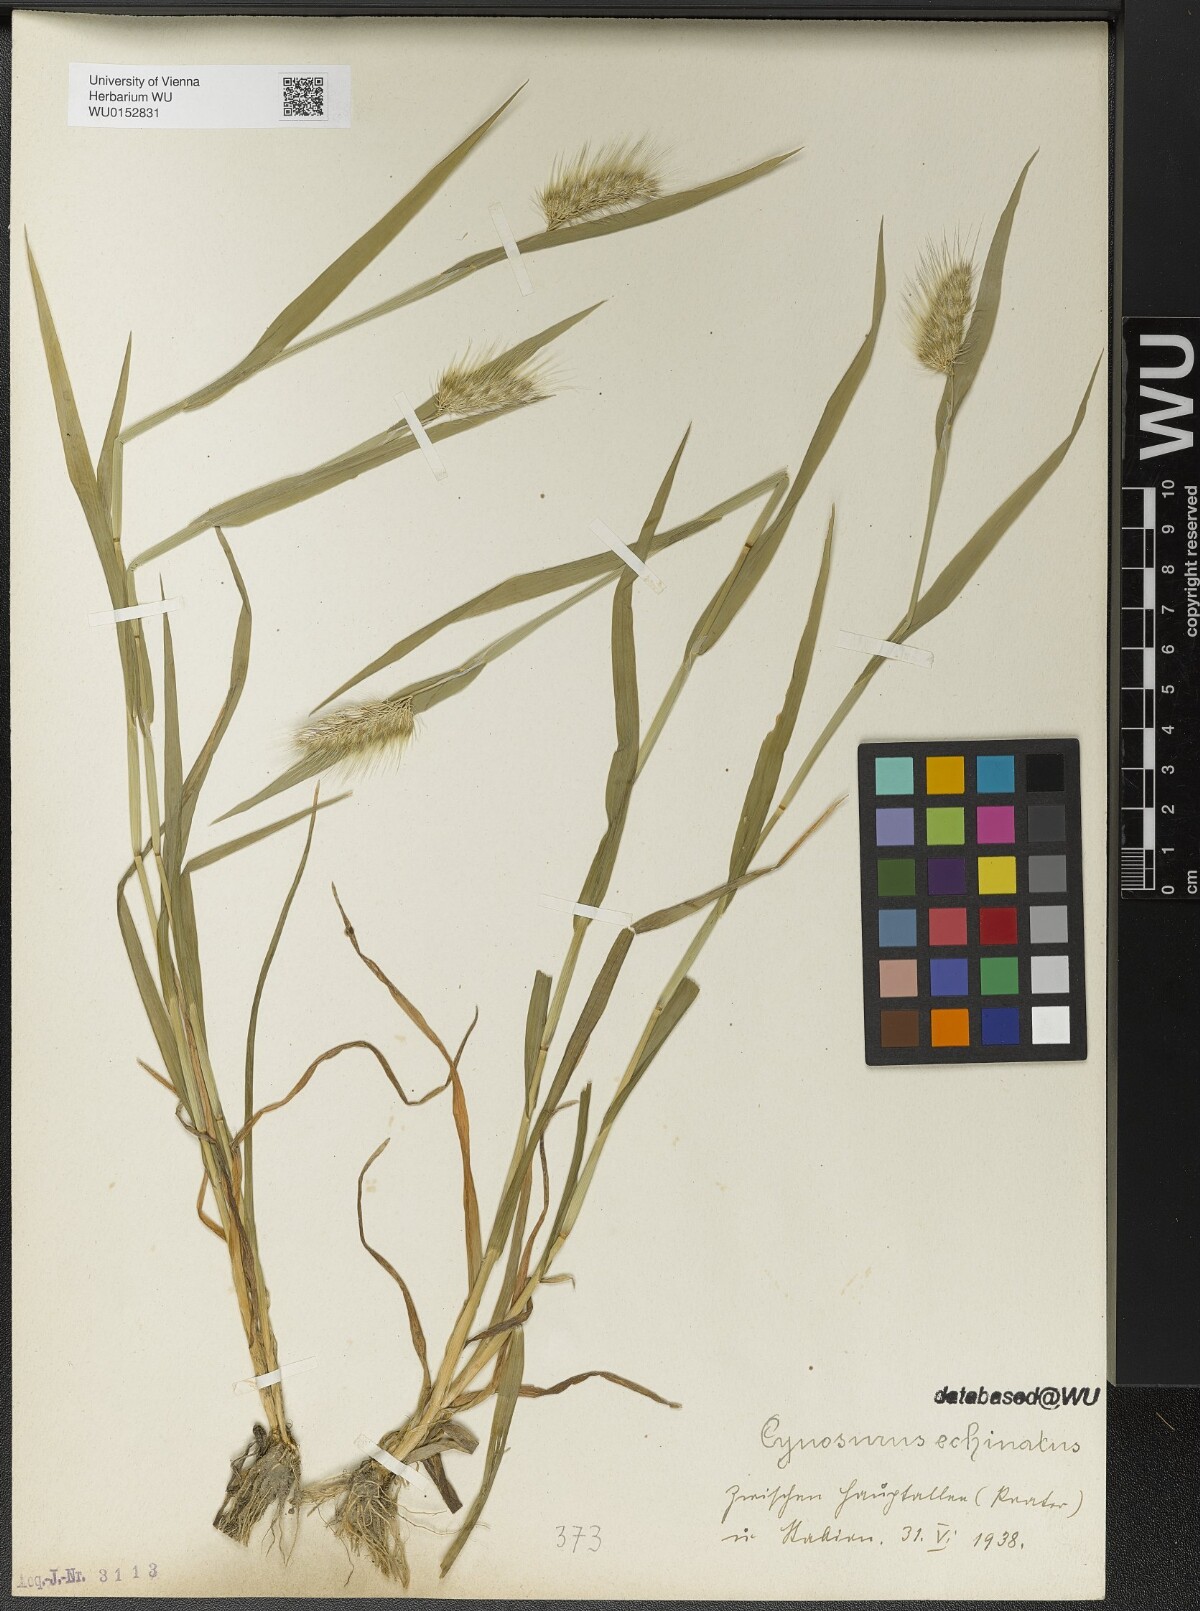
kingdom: Plantae
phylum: Tracheophyta
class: Liliopsida
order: Poales
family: Poaceae
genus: Cynosurus
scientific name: Cynosurus echinatus
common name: Rough dog's-tail
